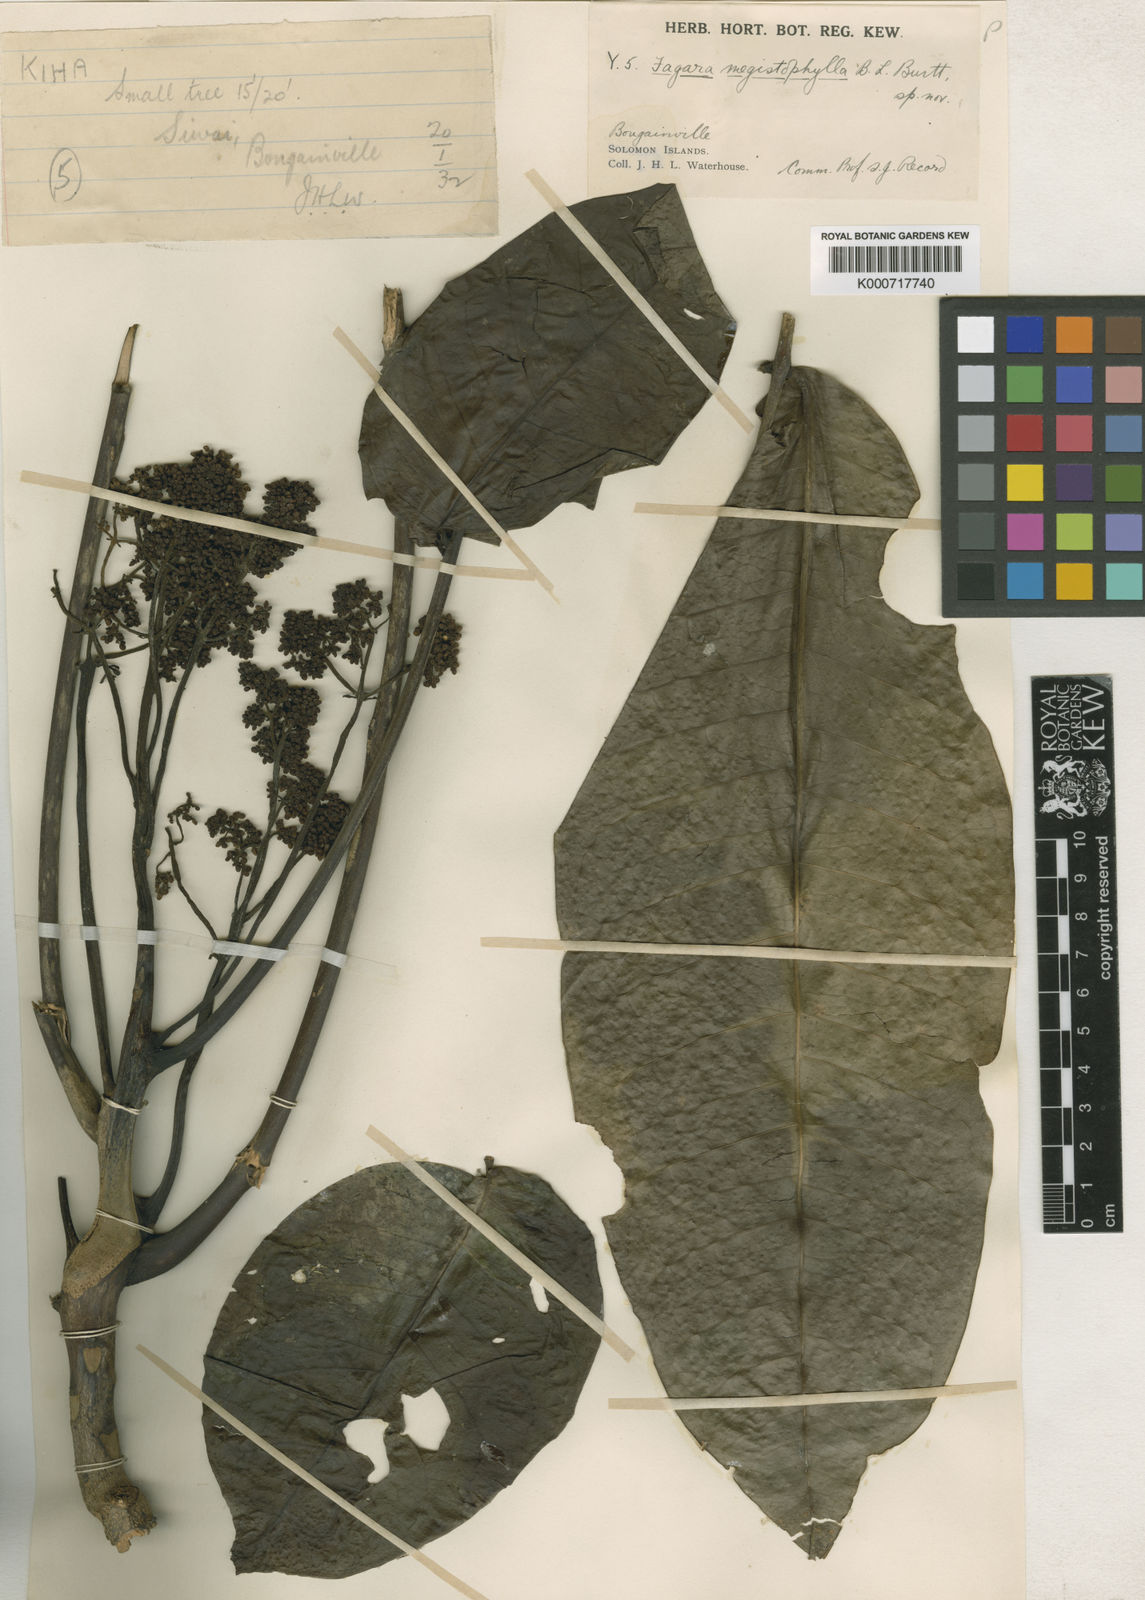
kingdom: Plantae
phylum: Tracheophyta
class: Magnoliopsida
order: Sapindales
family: Rutaceae
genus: Zanthoxylum
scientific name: Zanthoxylum megistophyllum
